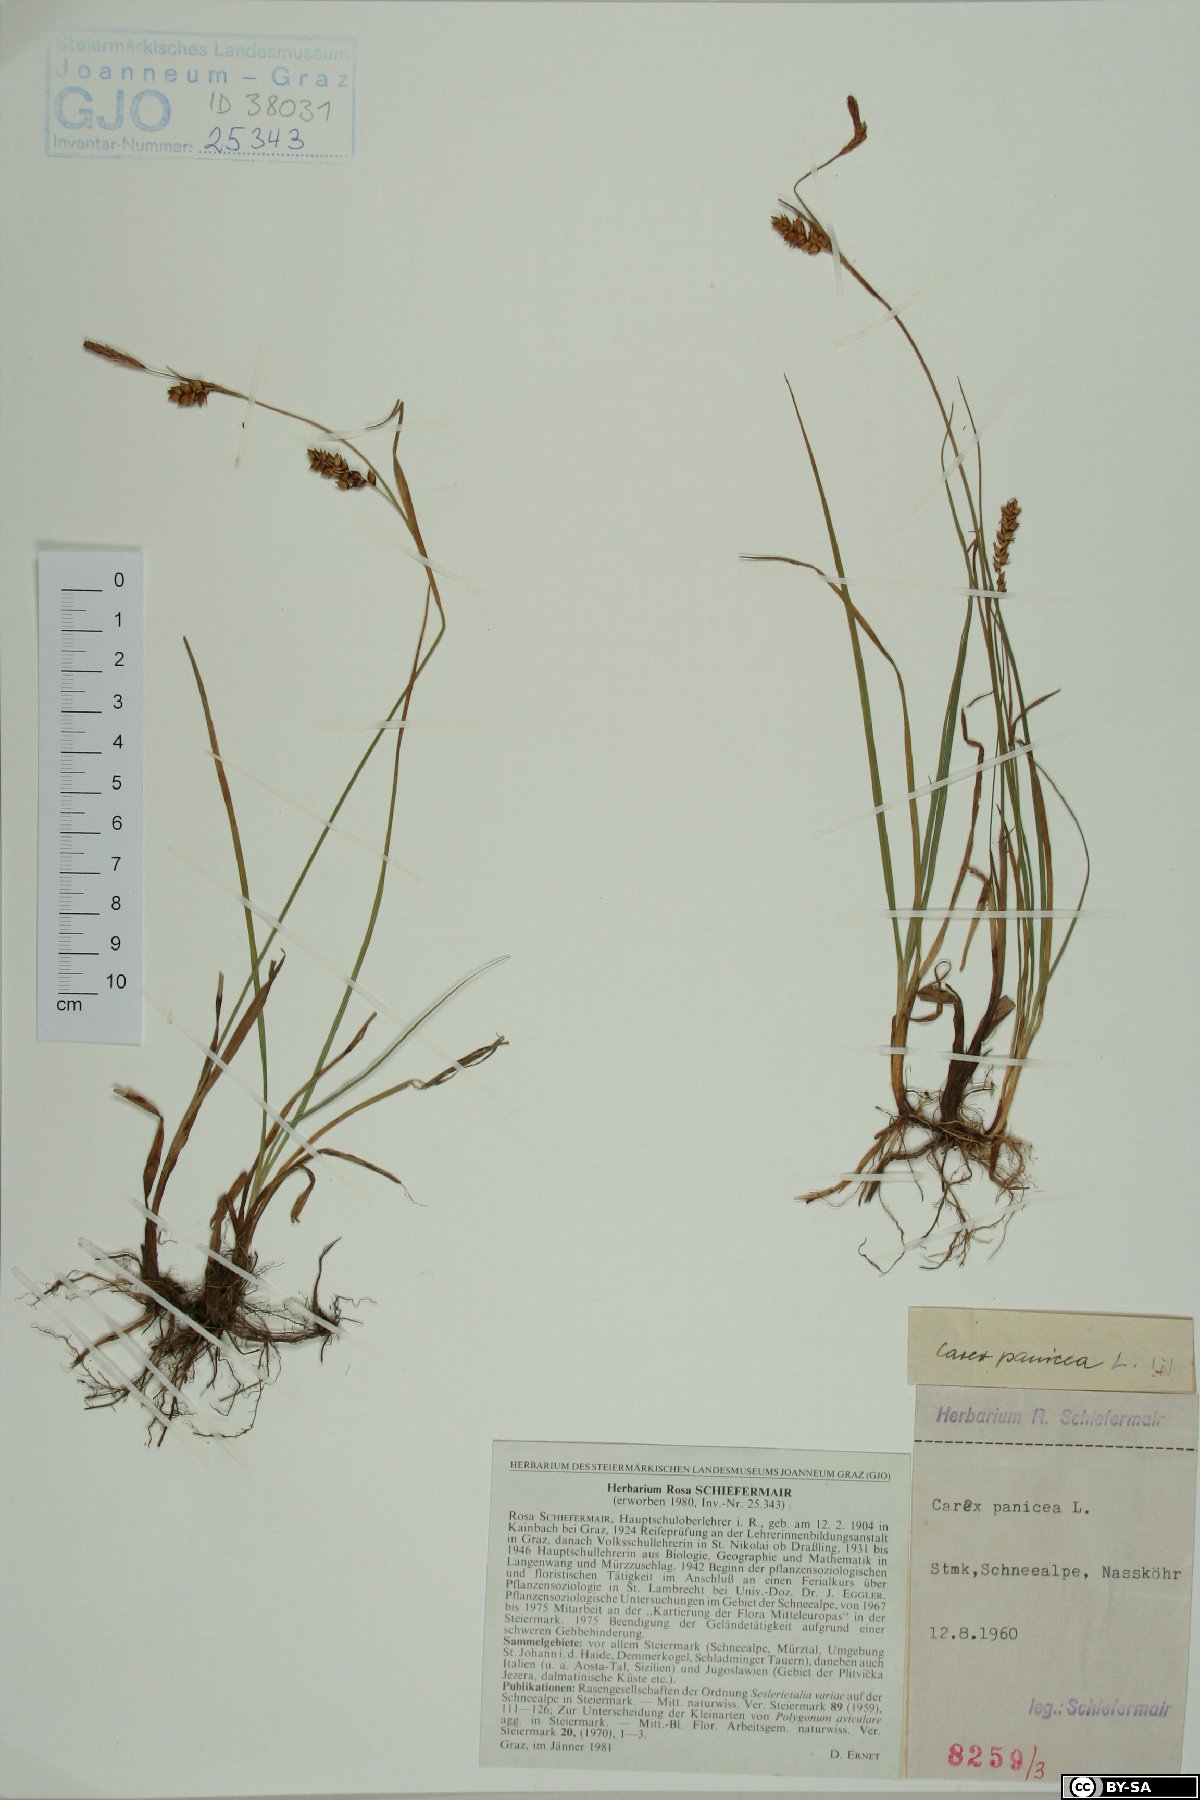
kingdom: Plantae
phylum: Tracheophyta
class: Liliopsida
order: Poales
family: Cyperaceae
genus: Carex
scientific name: Carex panicea
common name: Carnation sedge
